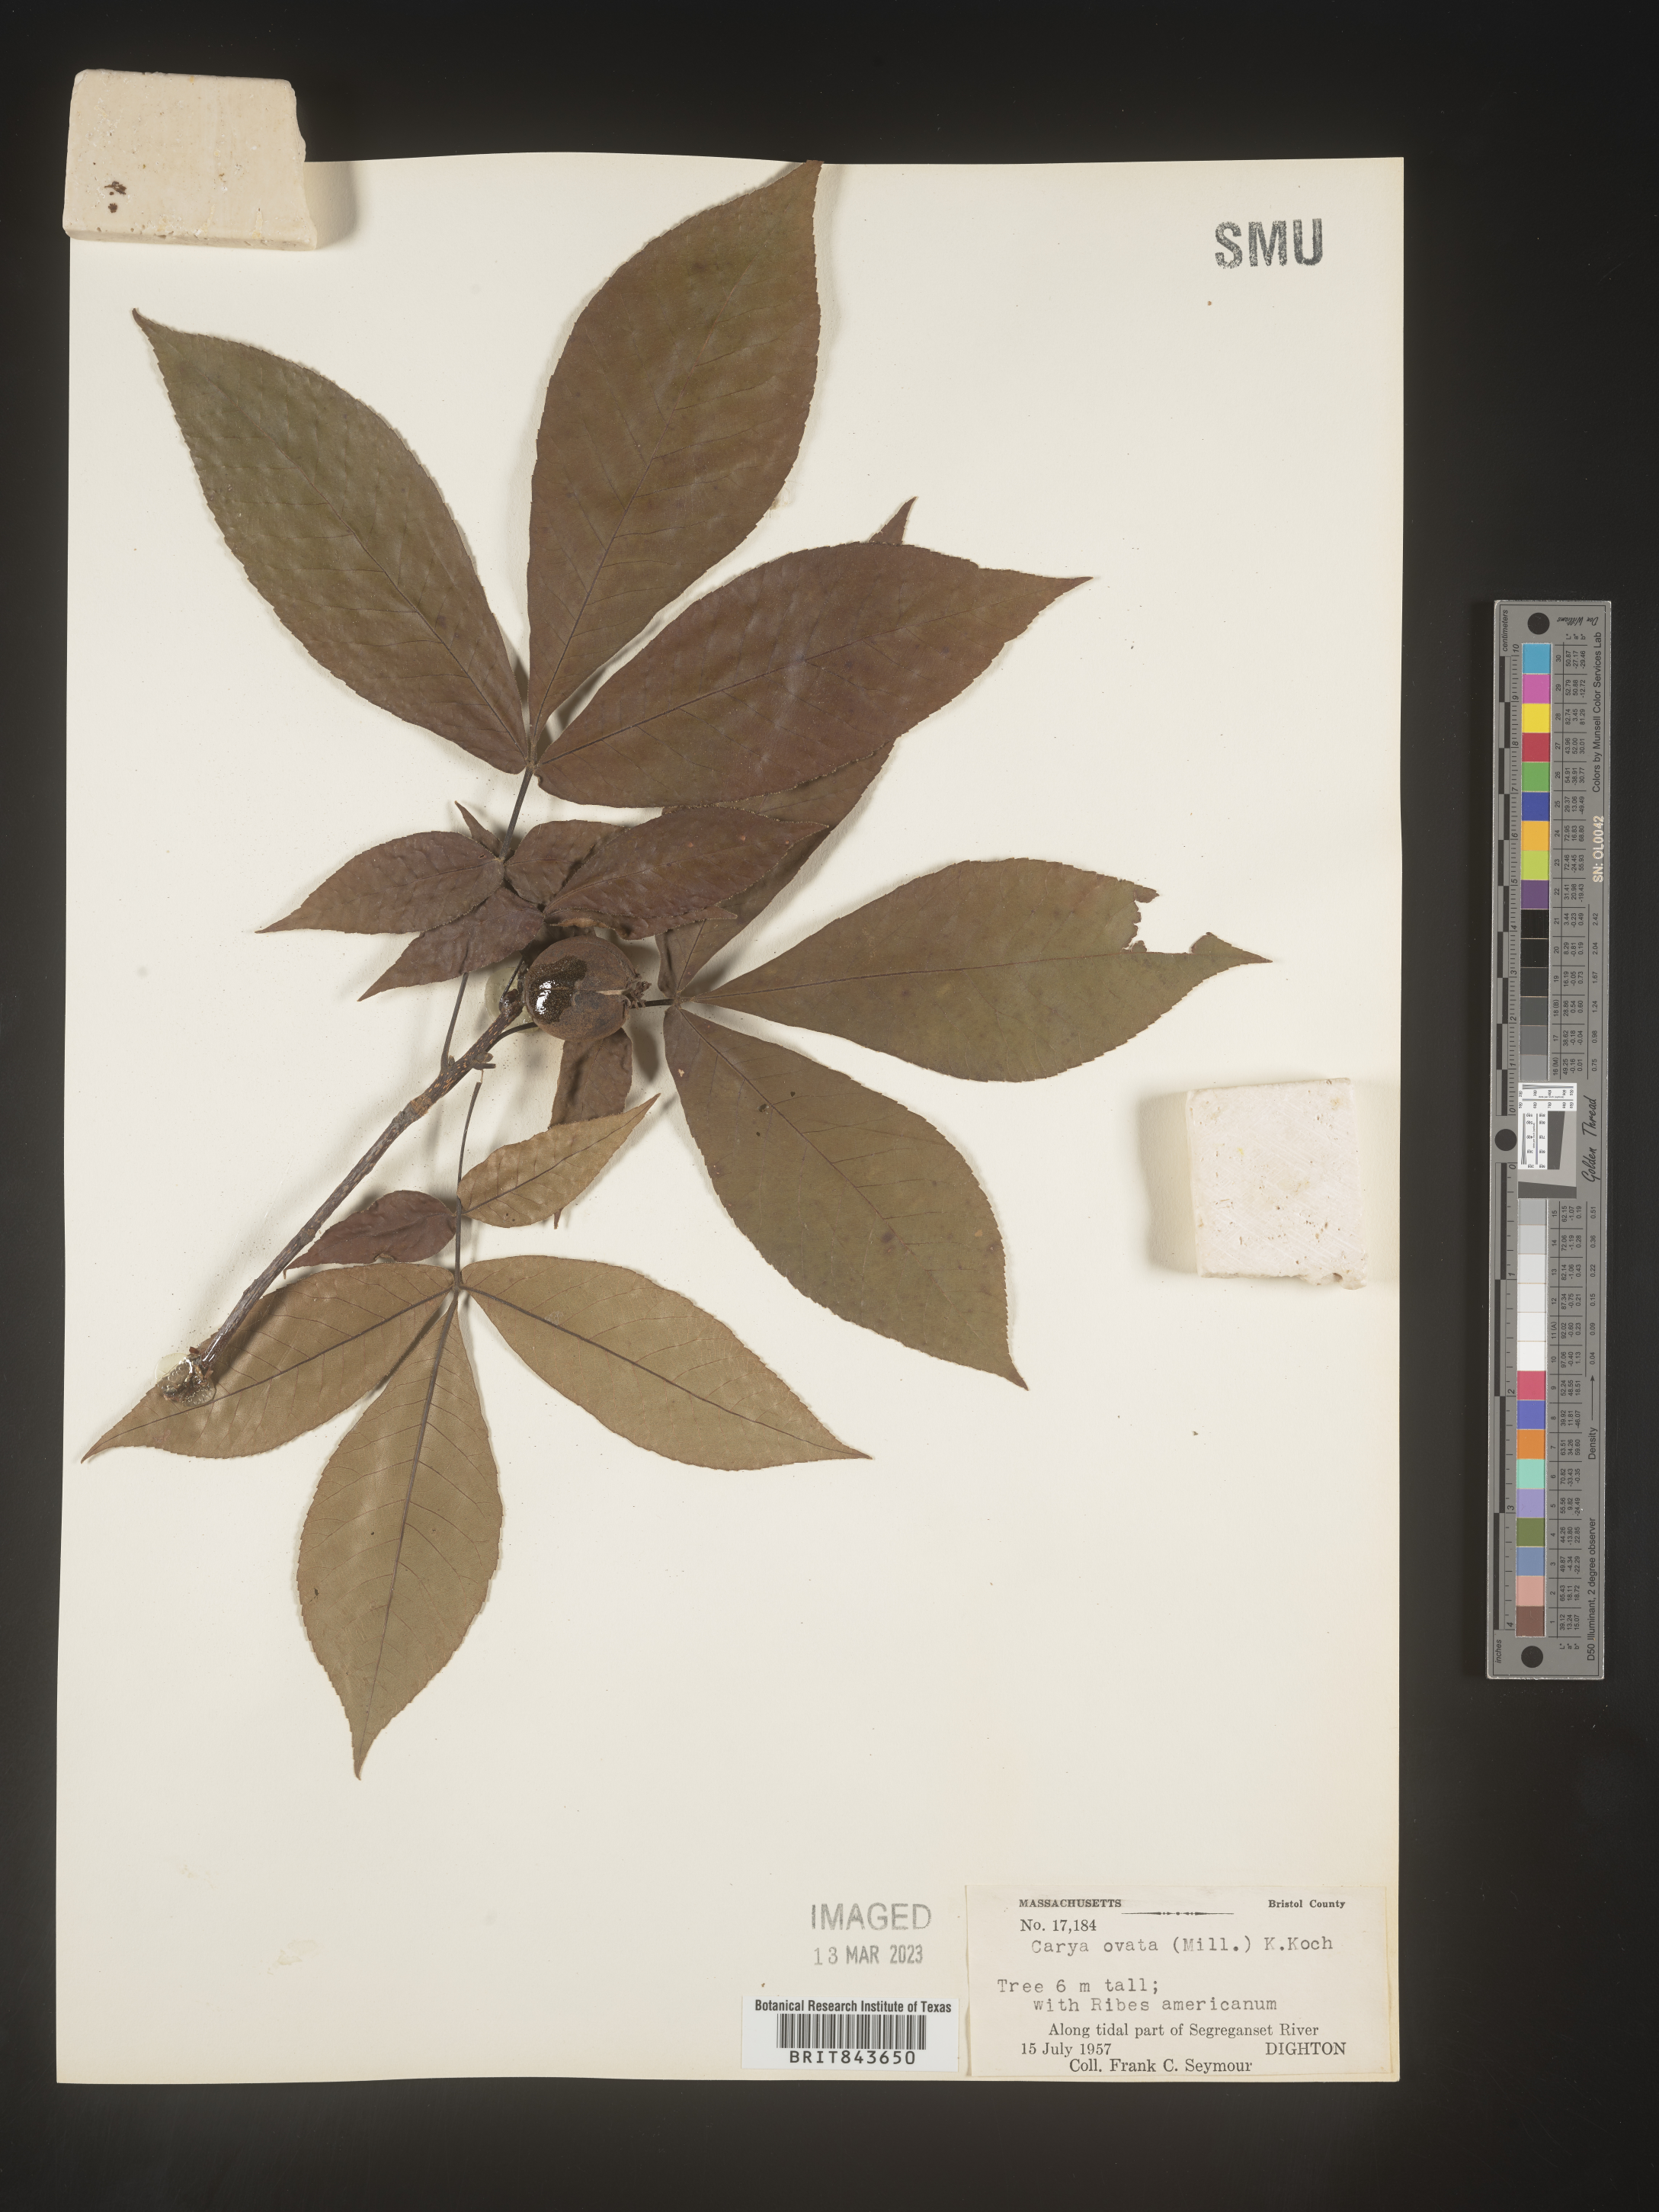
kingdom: Plantae
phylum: Tracheophyta
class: Magnoliopsida
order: Fagales
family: Juglandaceae
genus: Carya
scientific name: Carya ovata
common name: Shagbark hickory
